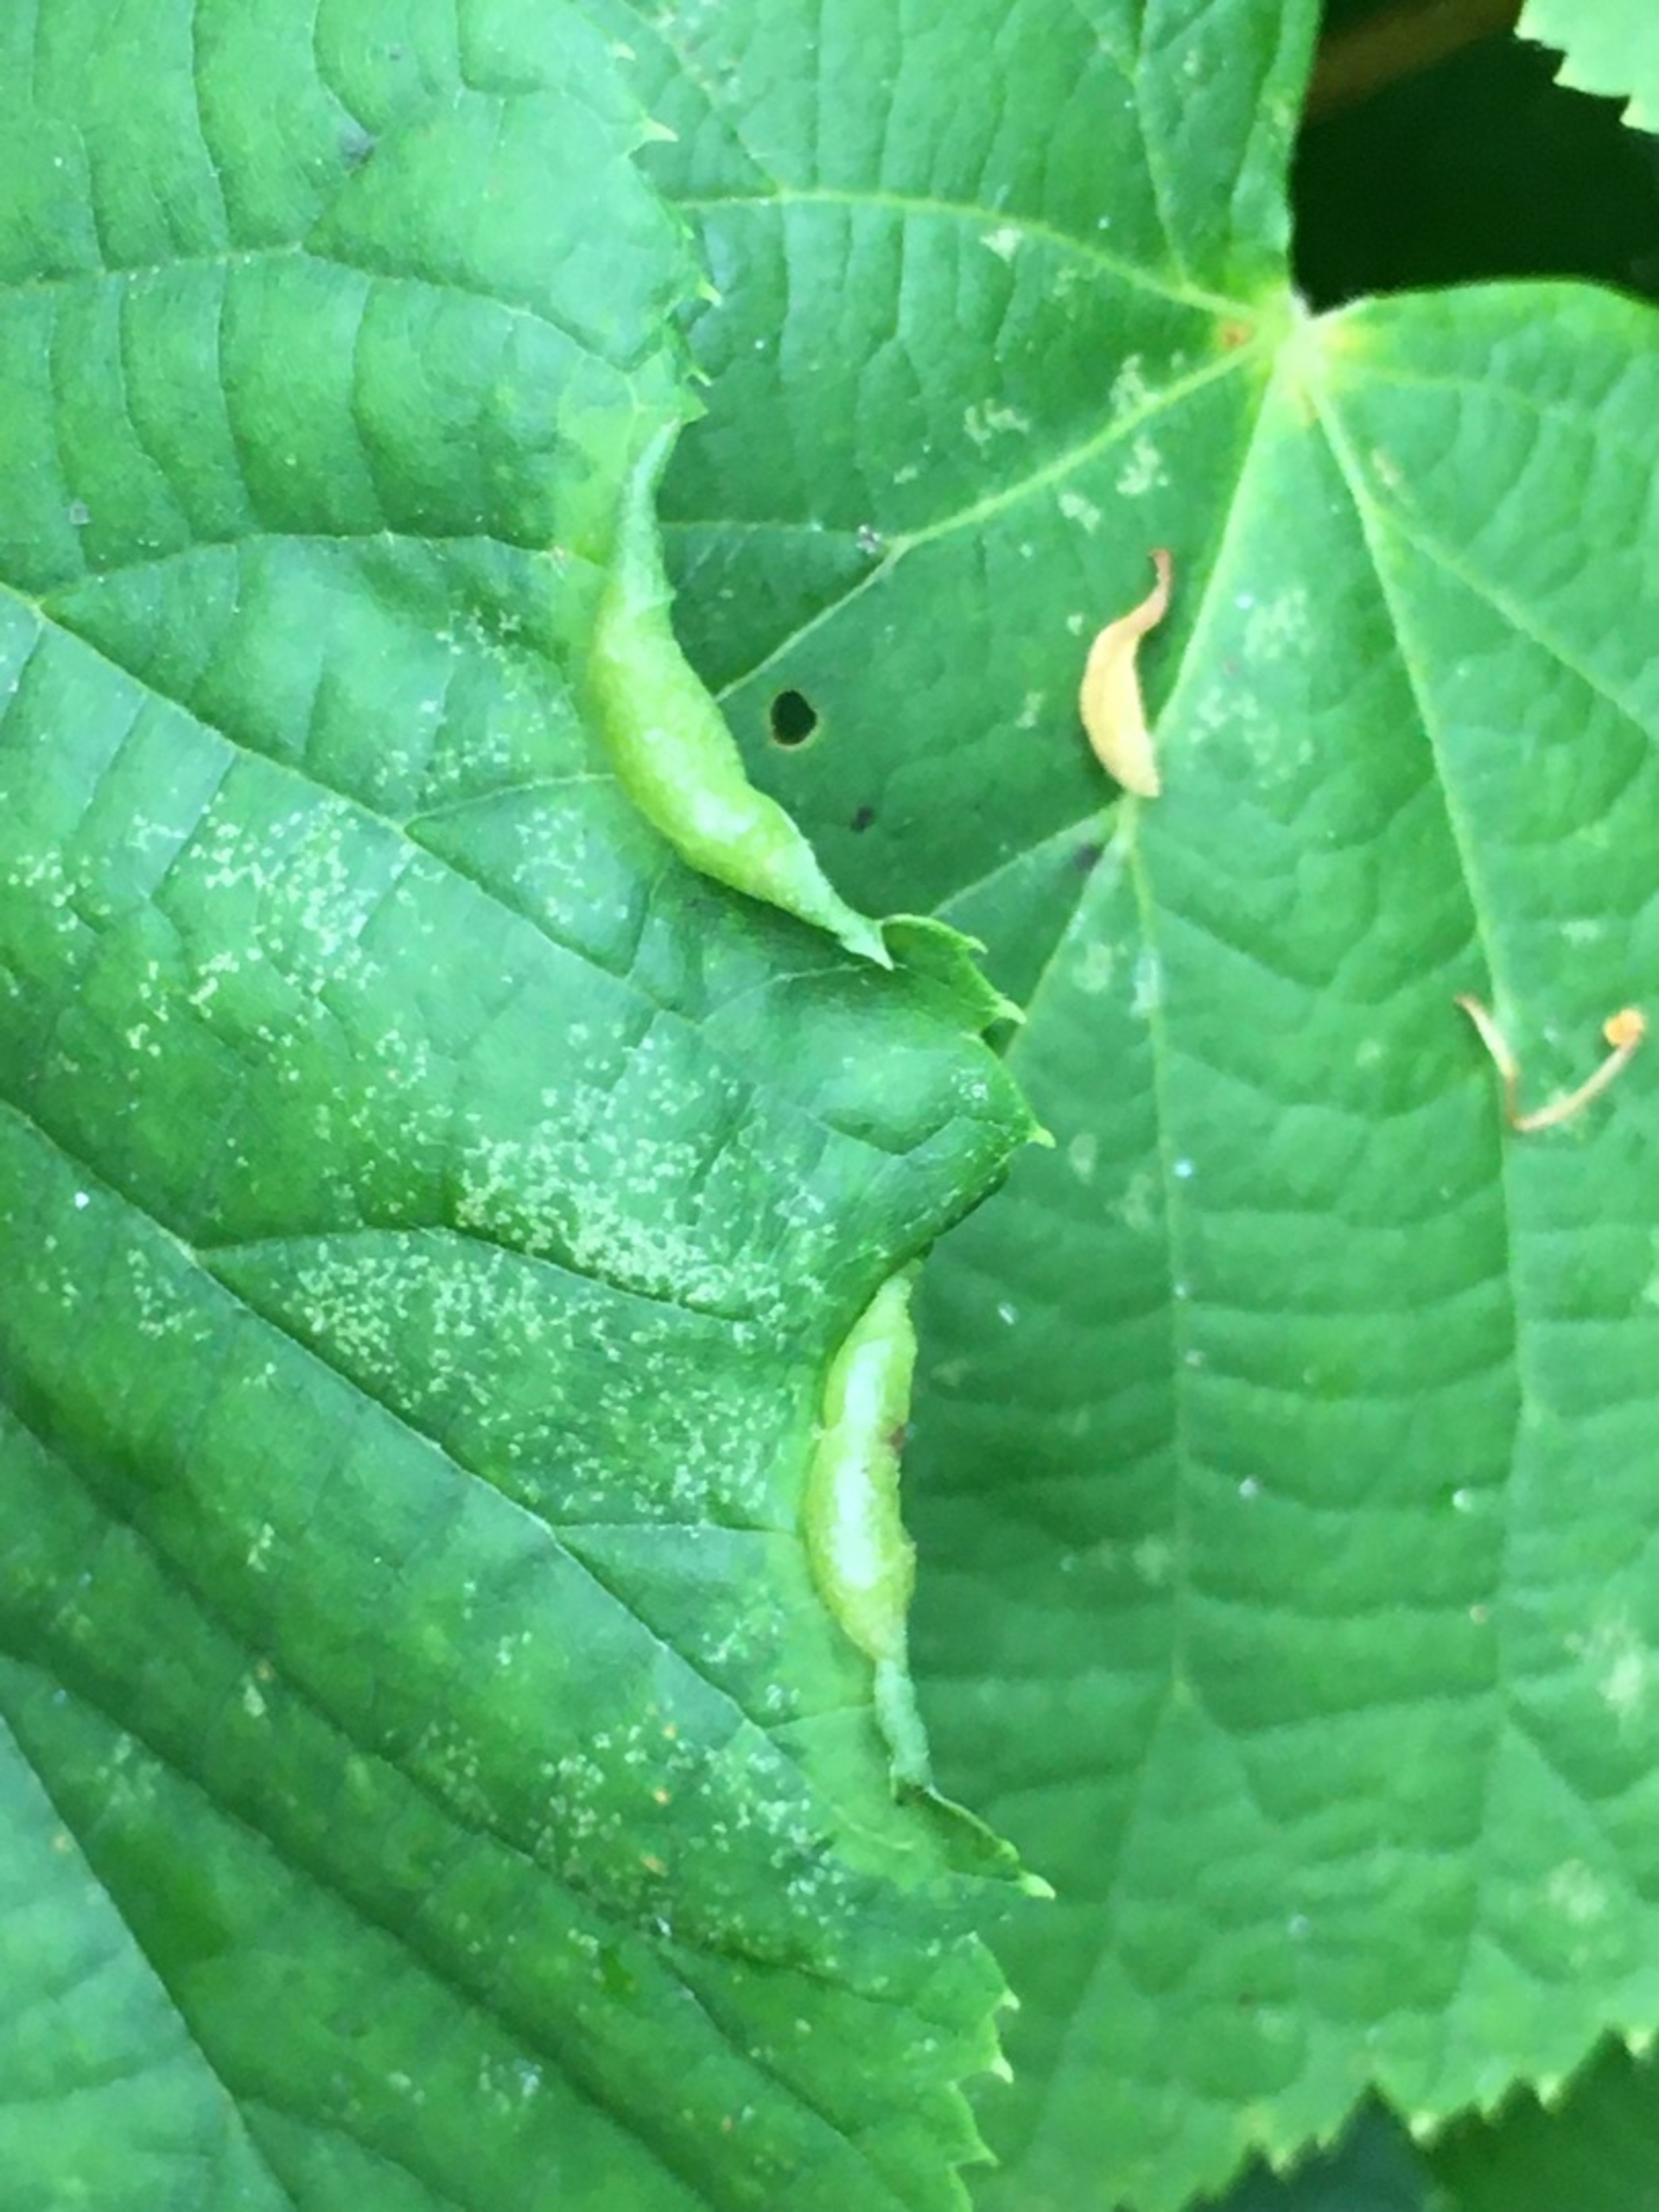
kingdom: Animalia
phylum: Arthropoda
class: Insecta
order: Diptera
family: Cecidomyiidae
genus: Dasineura
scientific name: Dasineura tiliae
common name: Linderullegalmyg
